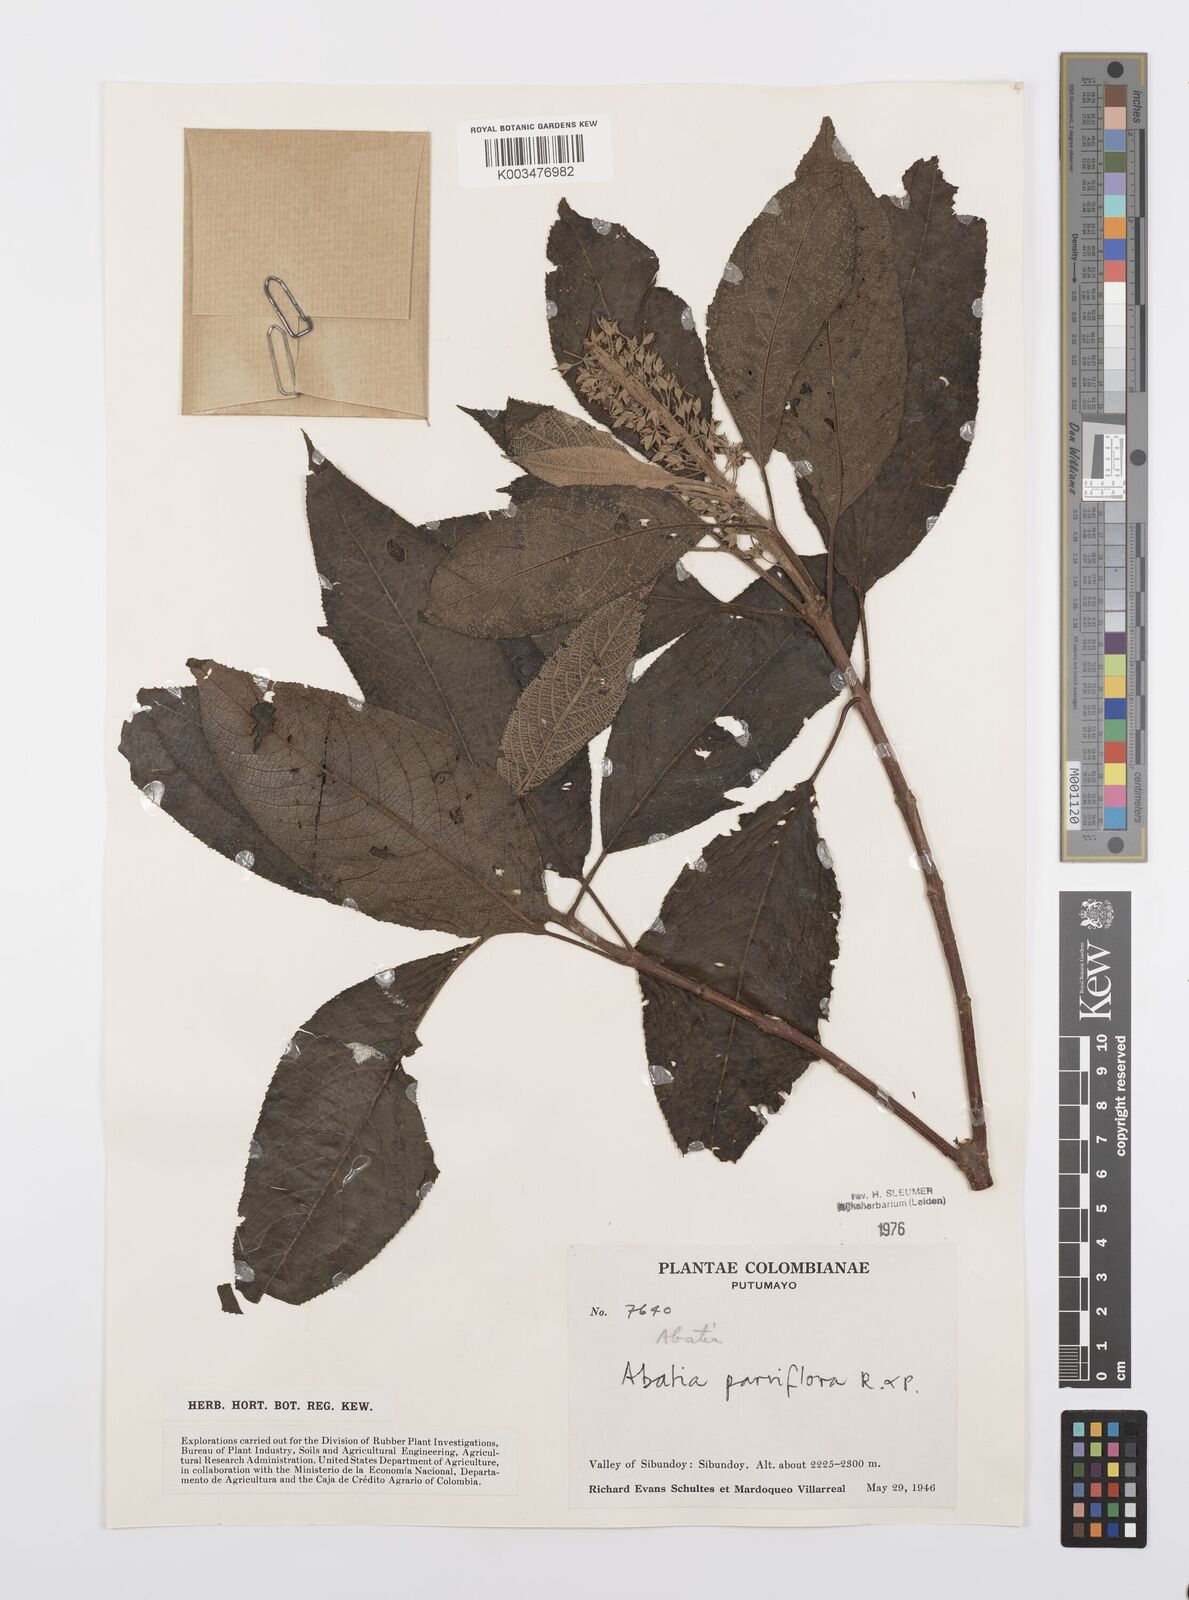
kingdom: Plantae
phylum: Tracheophyta
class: Magnoliopsida
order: Malpighiales
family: Salicaceae
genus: Abatia
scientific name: Abatia parviflora
